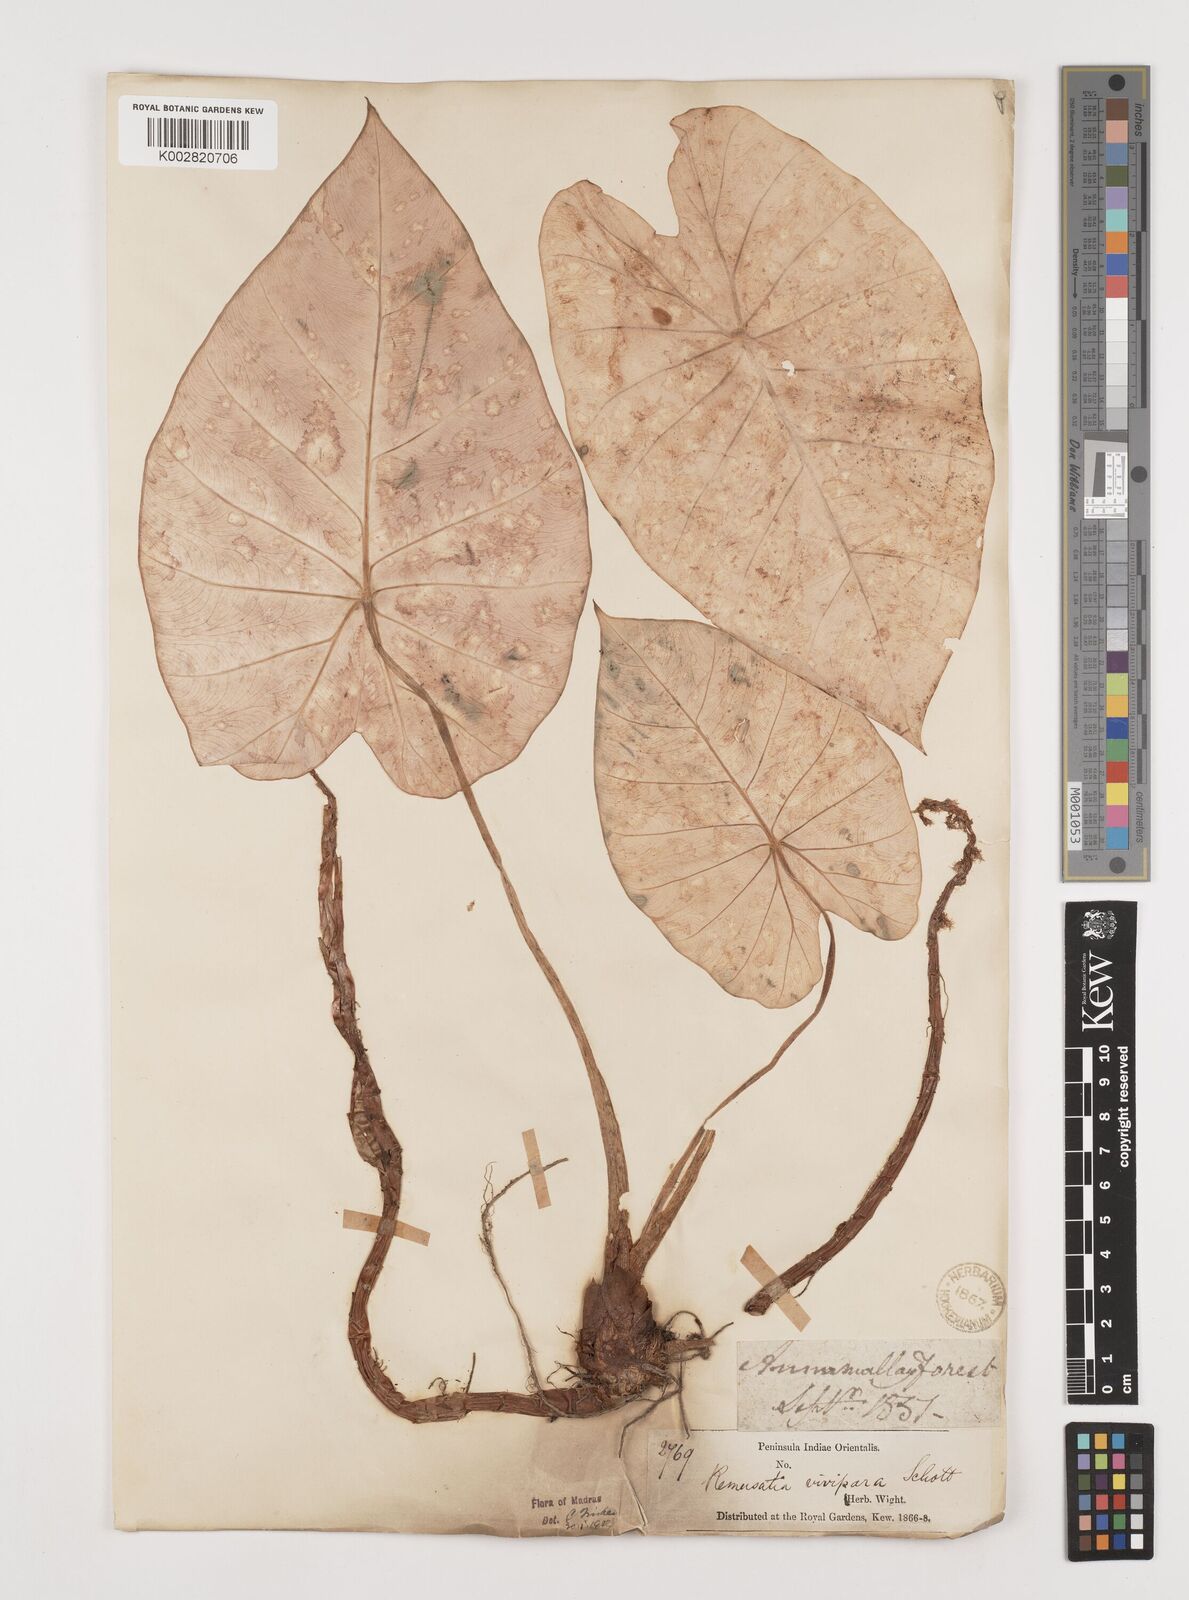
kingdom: Plantae
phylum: Tracheophyta
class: Liliopsida
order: Alismatales
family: Araceae
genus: Remusatia
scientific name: Remusatia vivipara
